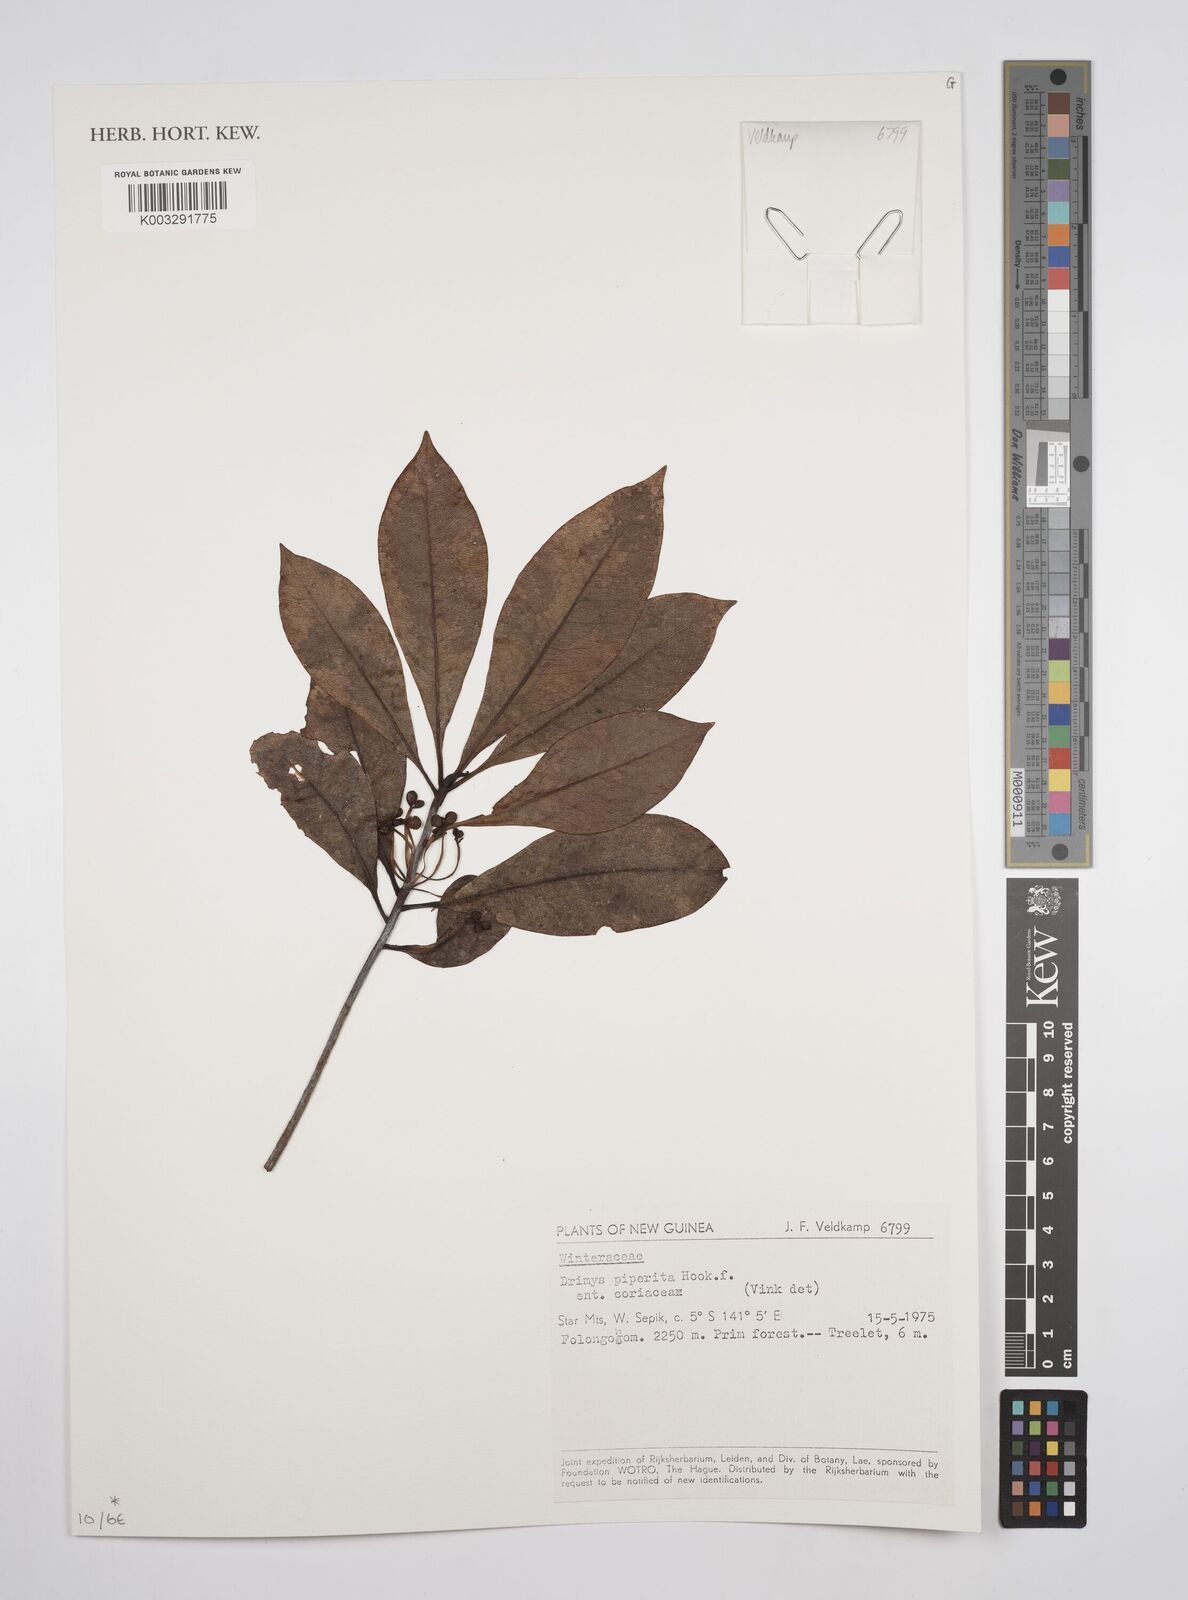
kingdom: Plantae
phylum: Tracheophyta
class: Magnoliopsida
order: Canellales
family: Winteraceae
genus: Drimys
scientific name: Drimys piperita
